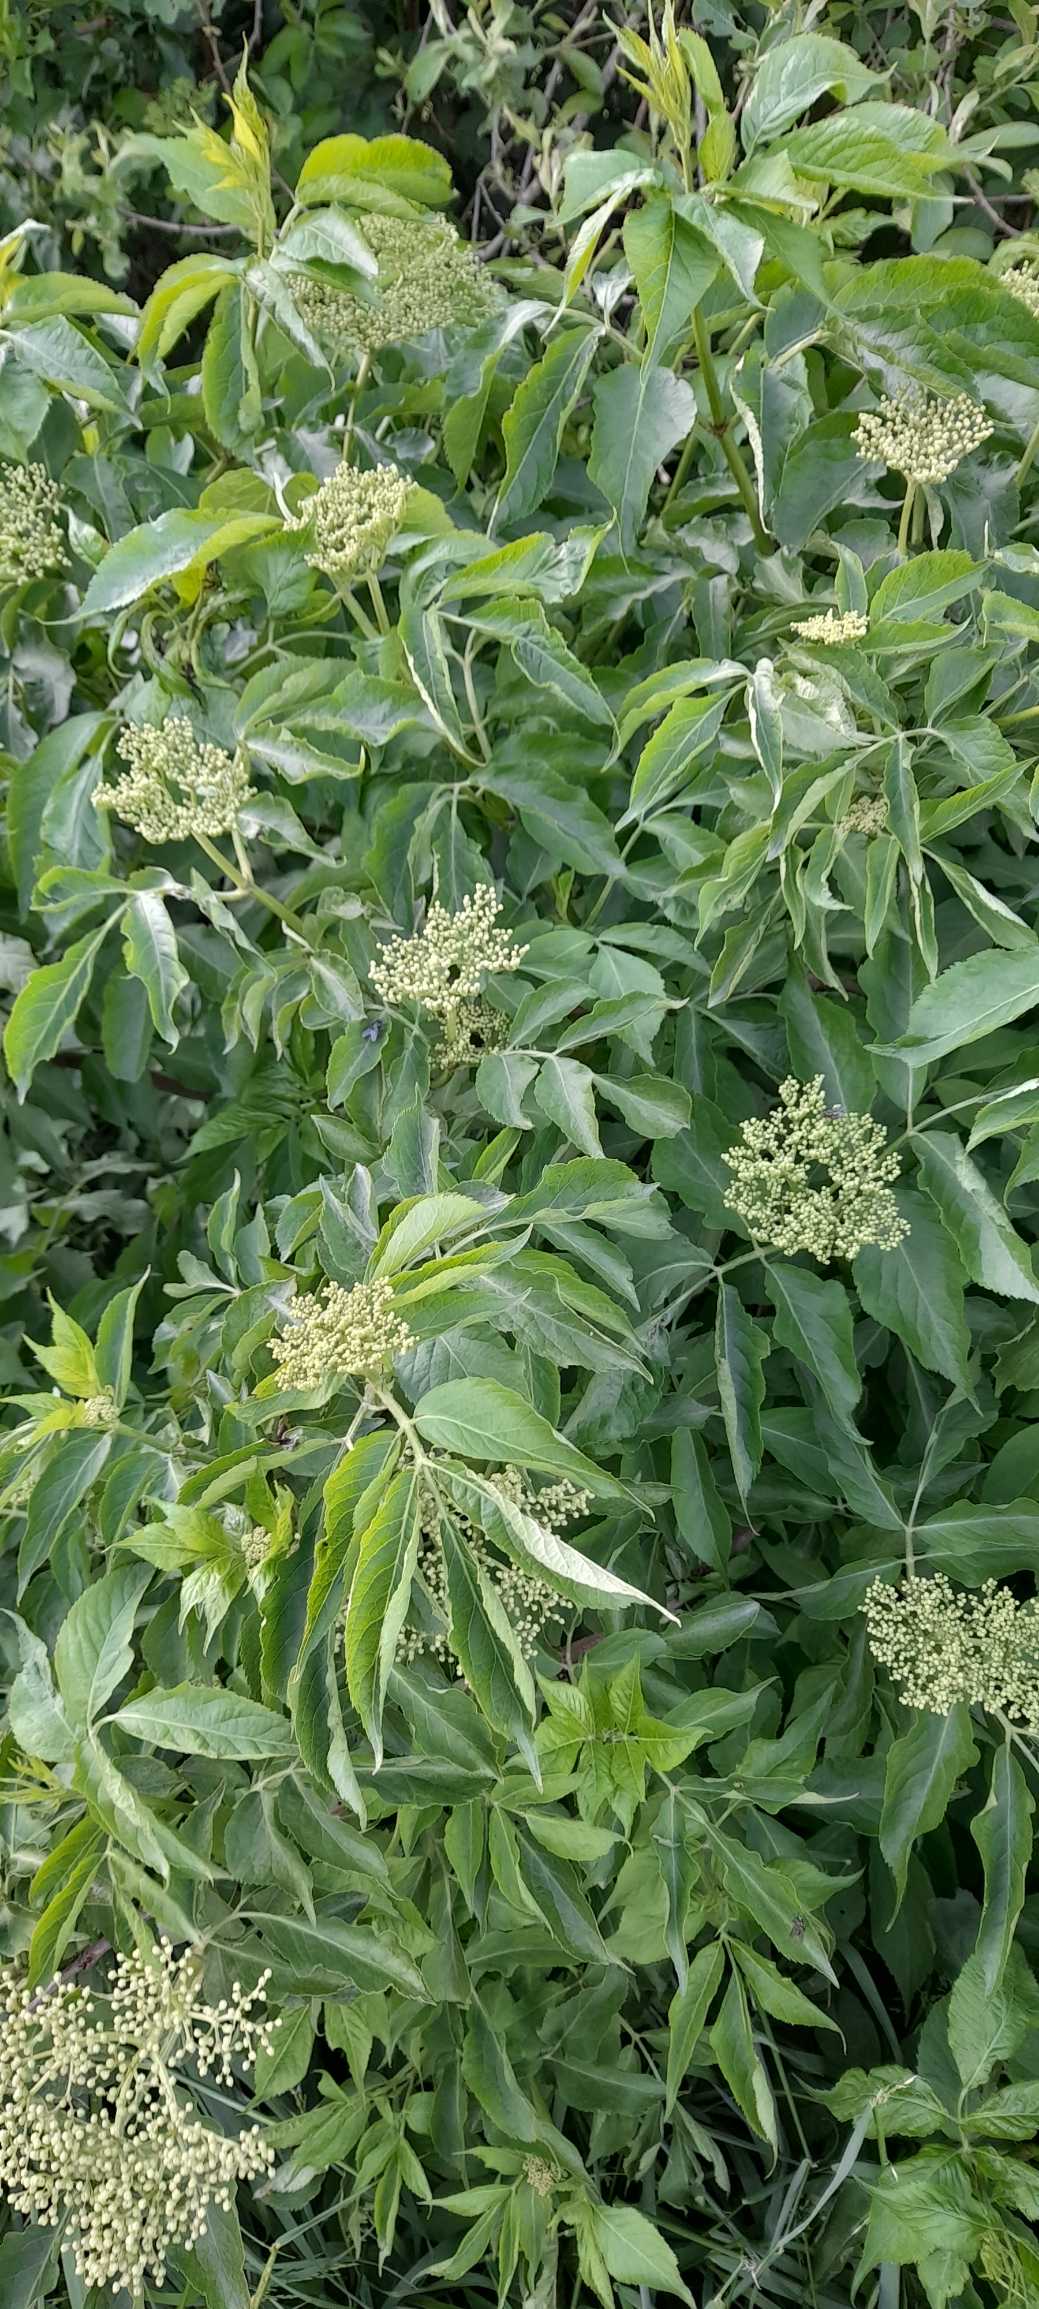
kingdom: Plantae
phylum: Tracheophyta
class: Magnoliopsida
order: Dipsacales
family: Viburnaceae
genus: Sambucus
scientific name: Sambucus nigra
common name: Almindelig hyld
